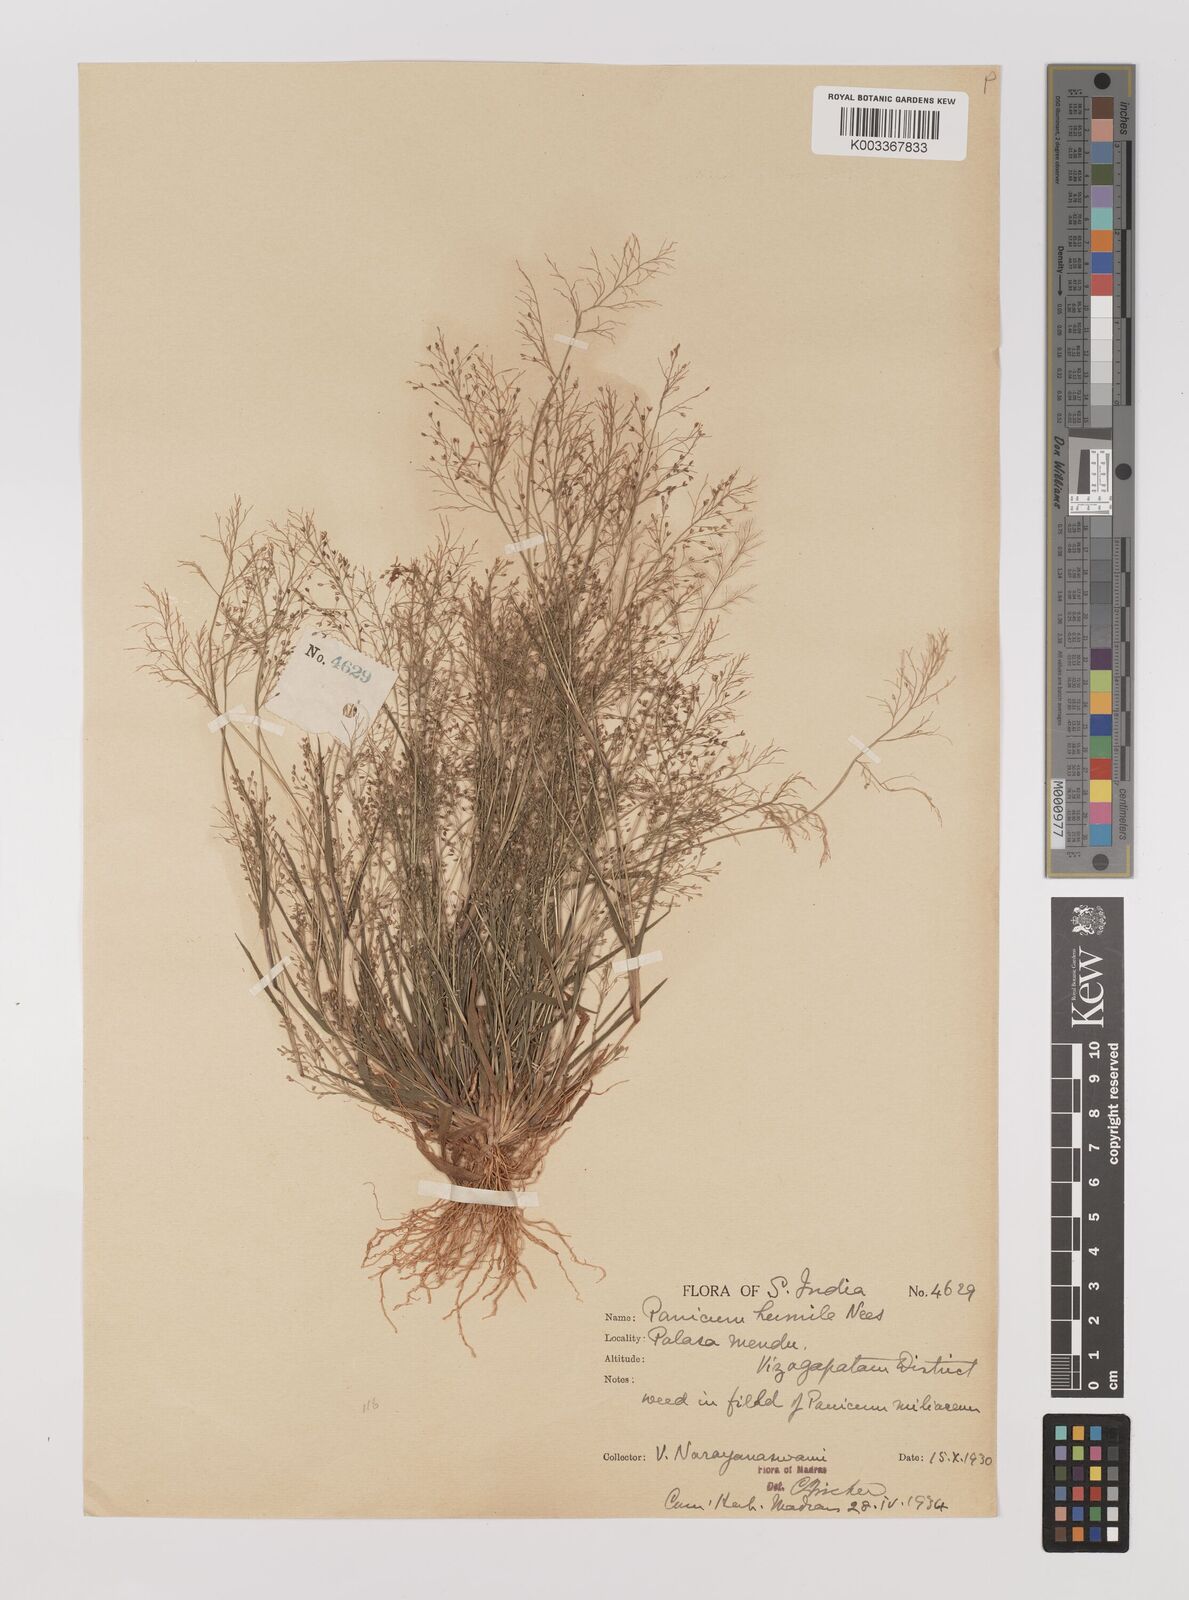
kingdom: Plantae
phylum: Tracheophyta
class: Liliopsida
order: Poales
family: Poaceae
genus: Panicum
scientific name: Panicum humile
